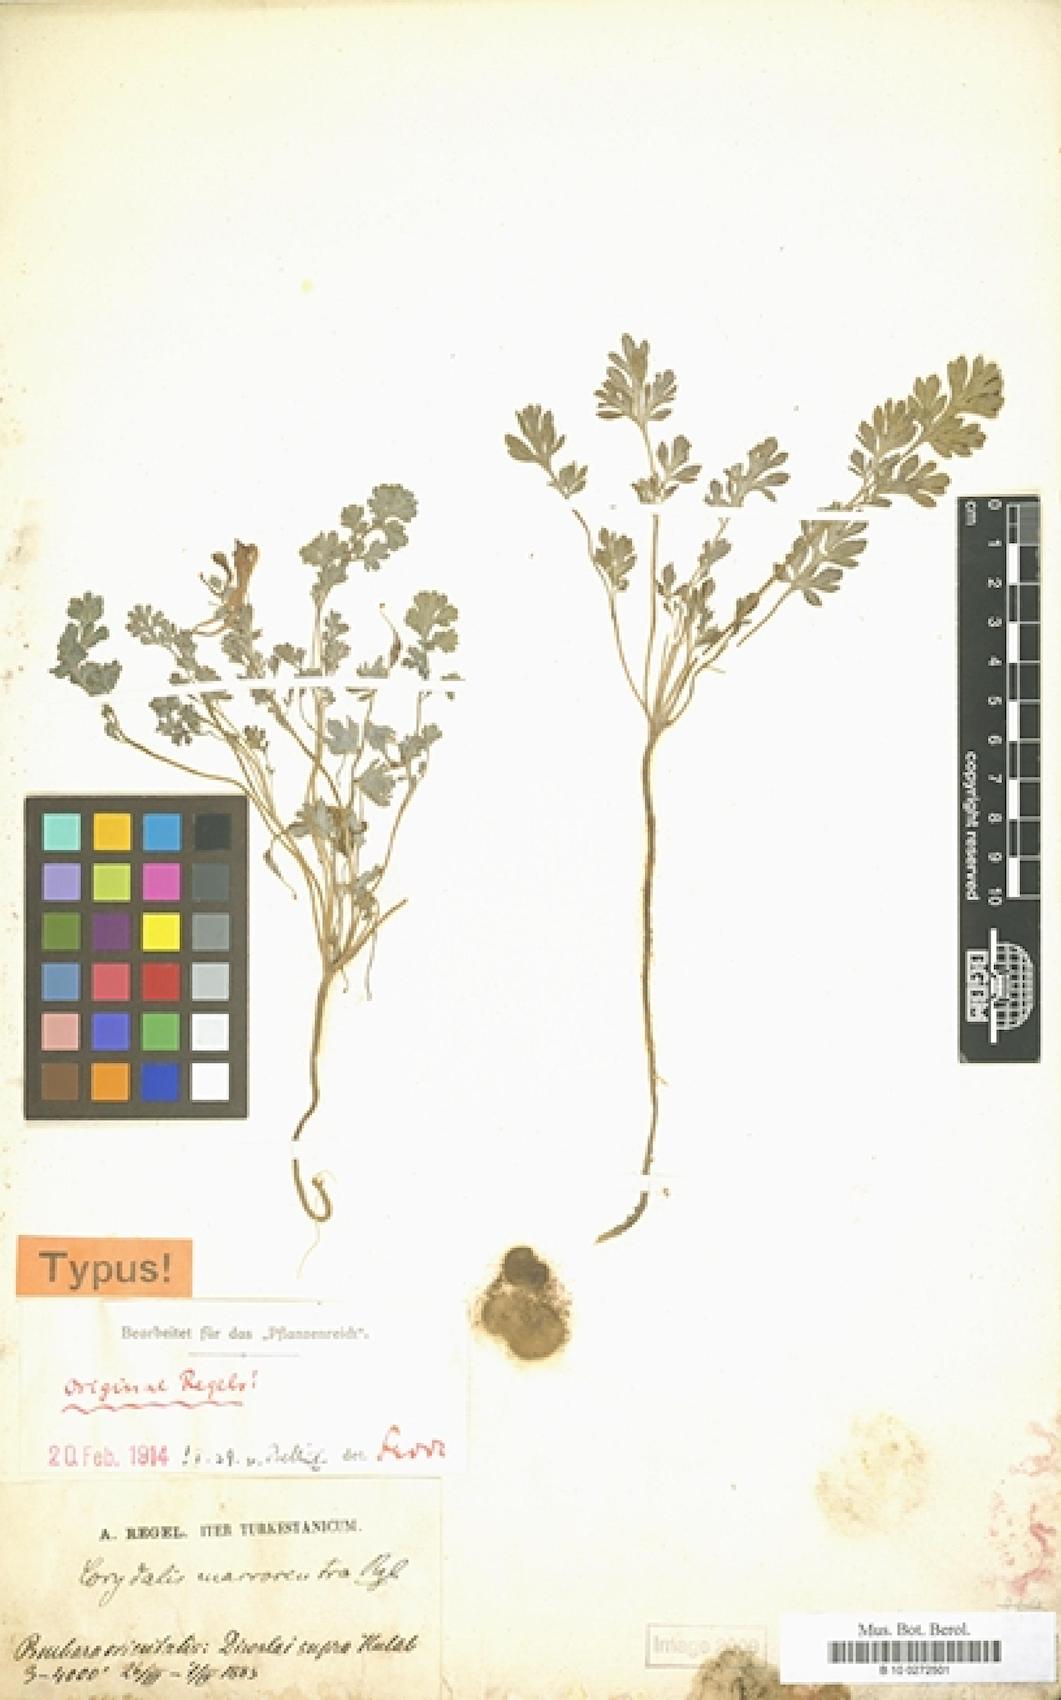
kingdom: Plantae
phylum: Tracheophyta
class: Magnoliopsida
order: Ranunculales
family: Papaveraceae
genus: Corydalis
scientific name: Corydalis macrocentra
